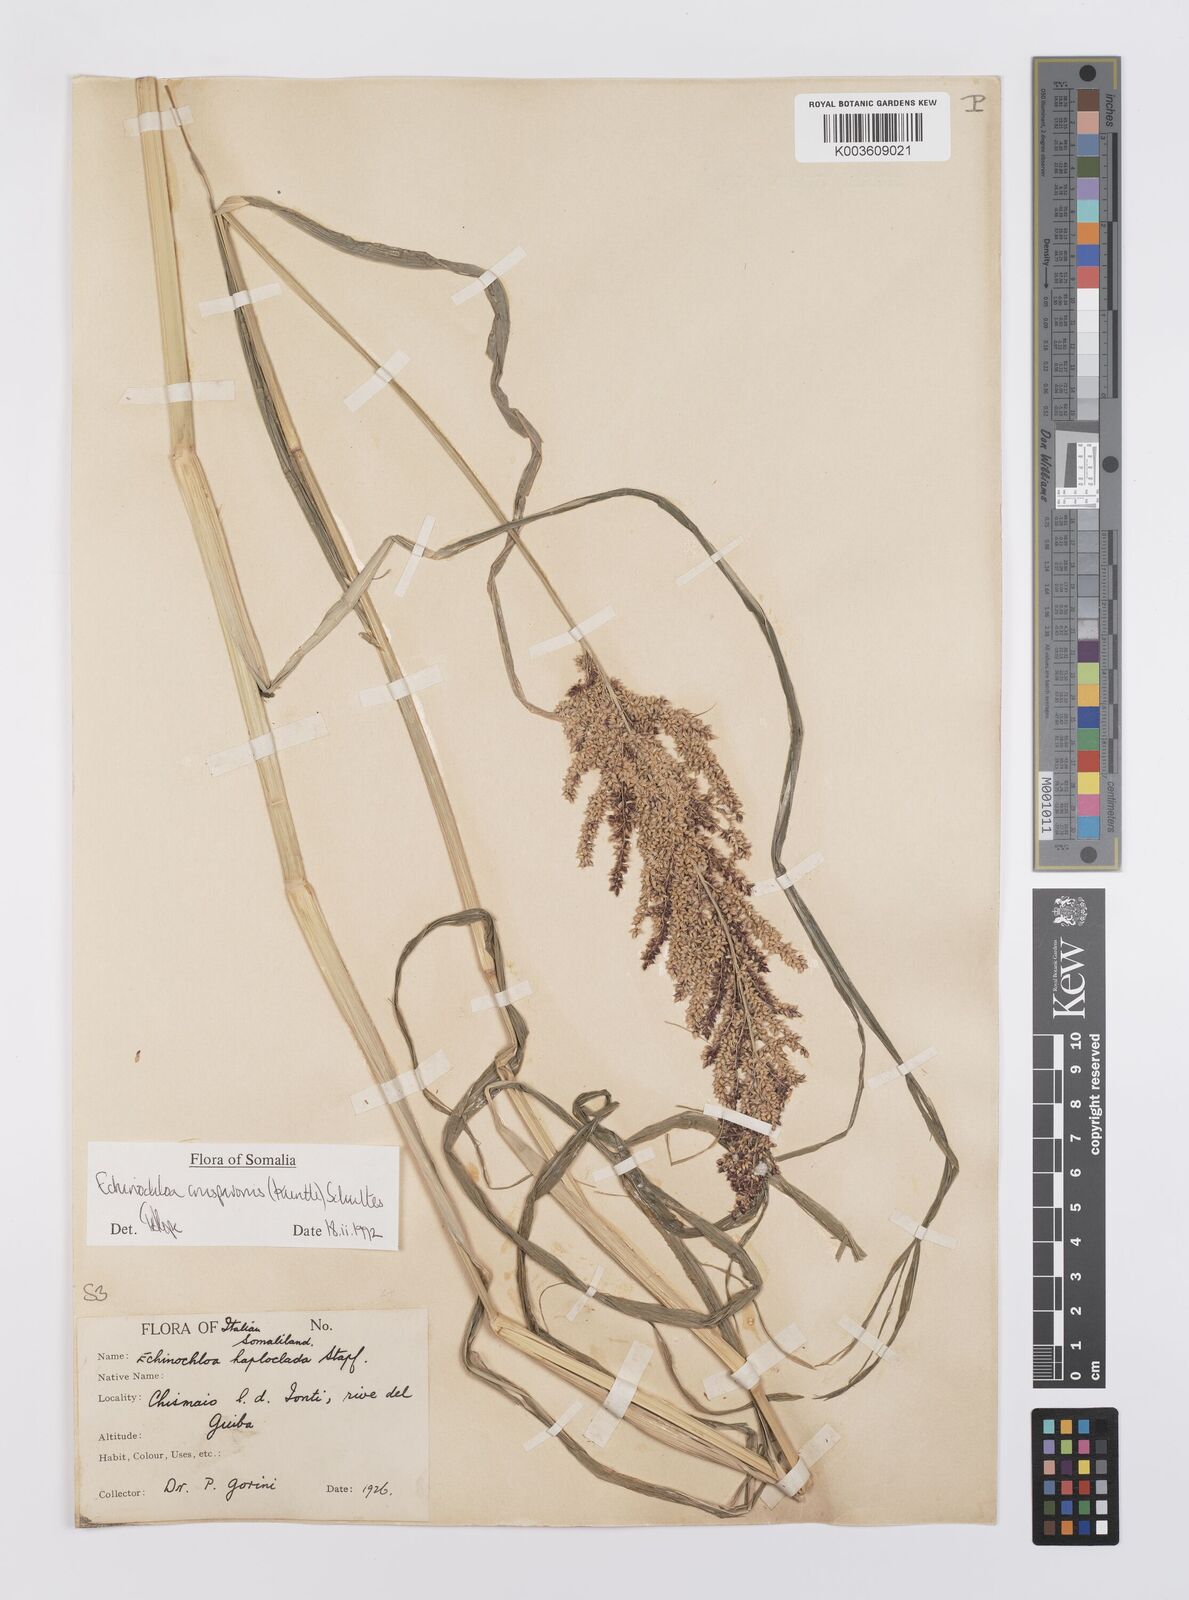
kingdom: Plantae
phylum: Tracheophyta
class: Liliopsida
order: Poales
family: Poaceae
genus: Echinochloa
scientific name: Echinochloa crus-pavonis
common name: Gulf cockspur grass
